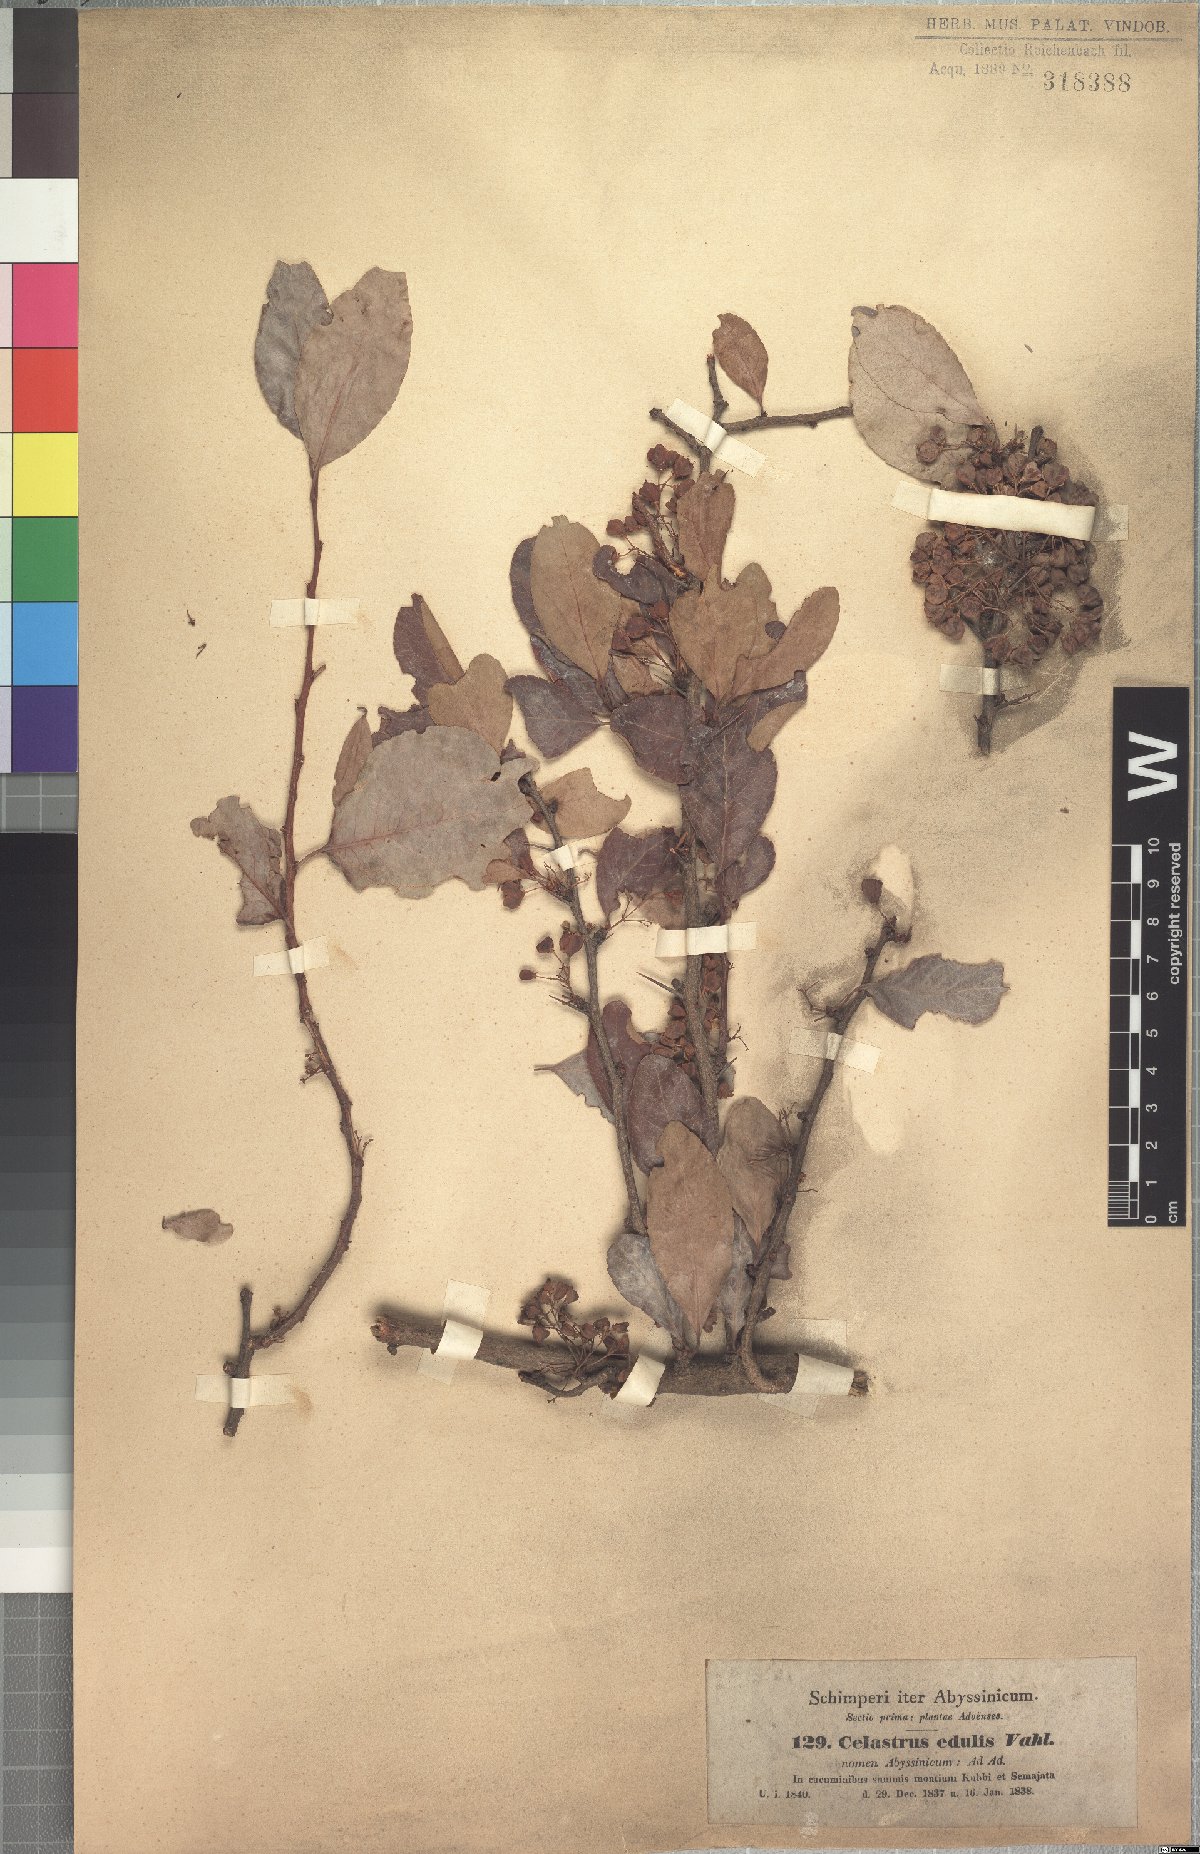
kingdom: Plantae
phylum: Tracheophyta
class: Magnoliopsida
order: Celastrales
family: Celastraceae
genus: Gymnosporia
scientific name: Gymnosporia obscura
